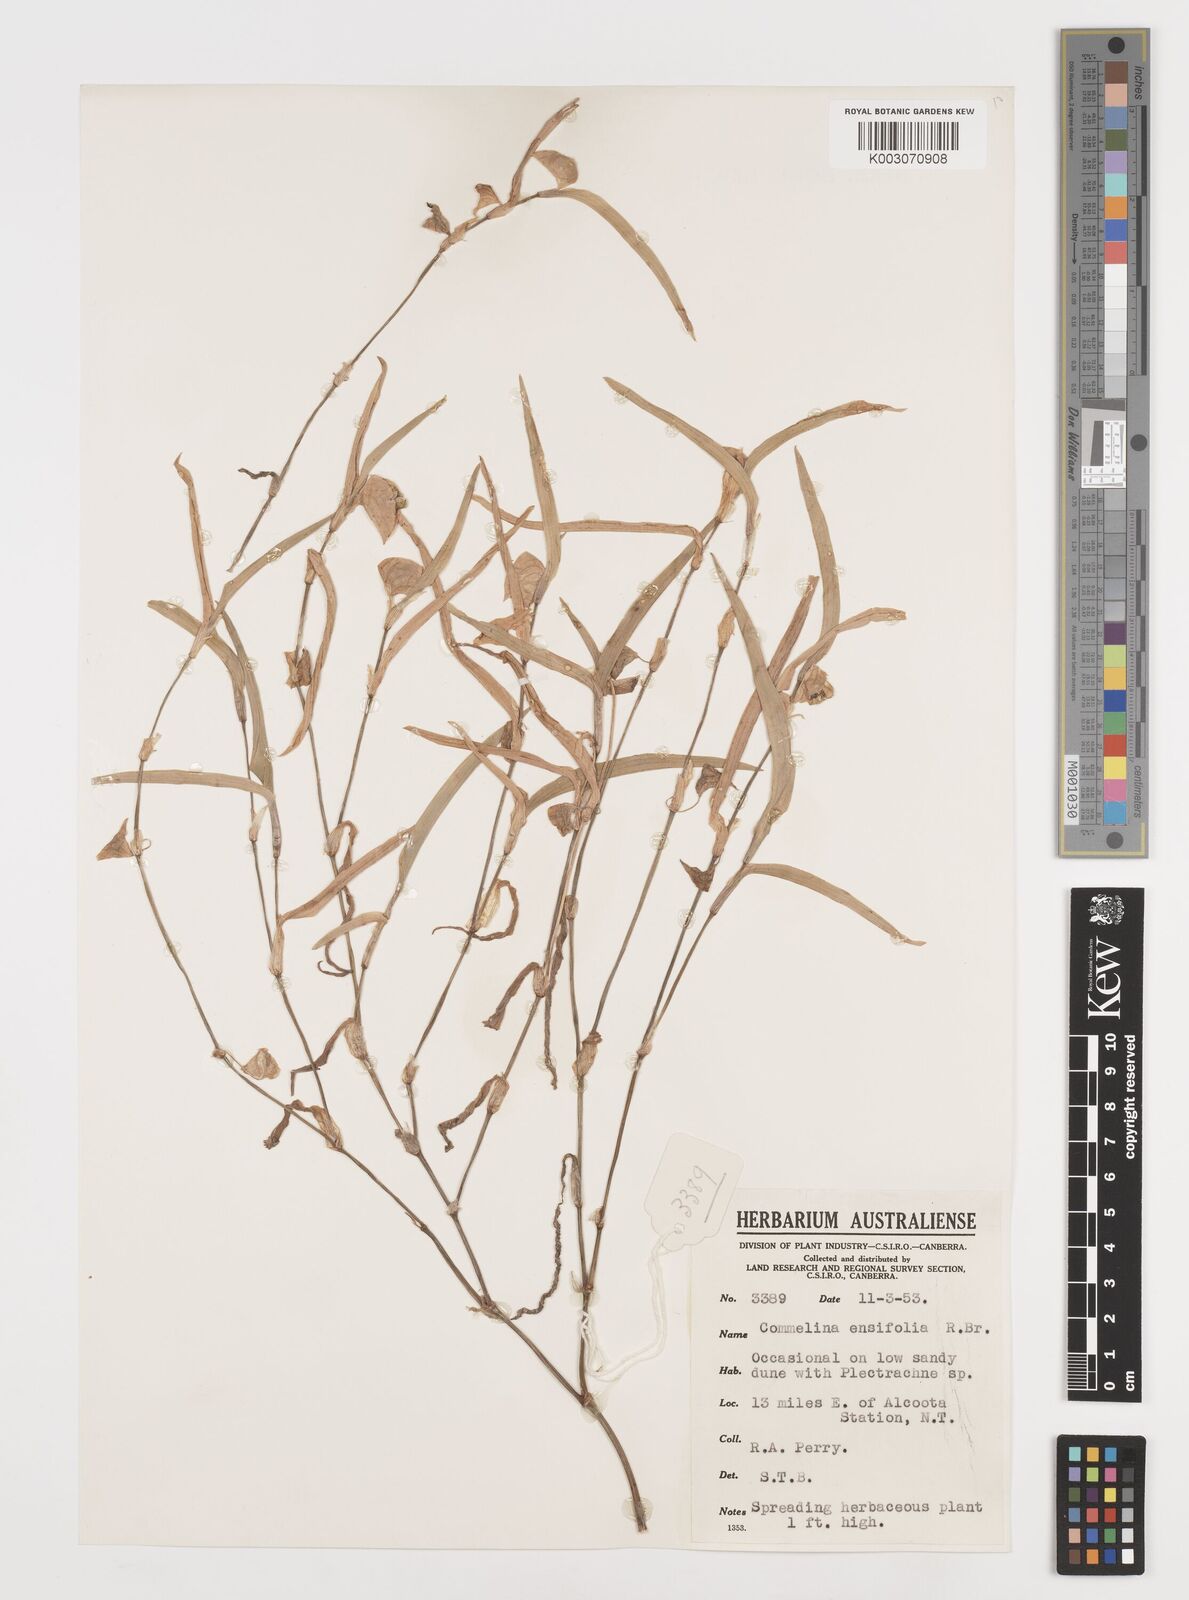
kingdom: Plantae
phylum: Tracheophyta
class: Liliopsida
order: Commelinales
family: Commelinaceae
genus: Commelina
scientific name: Commelina ensifolia
